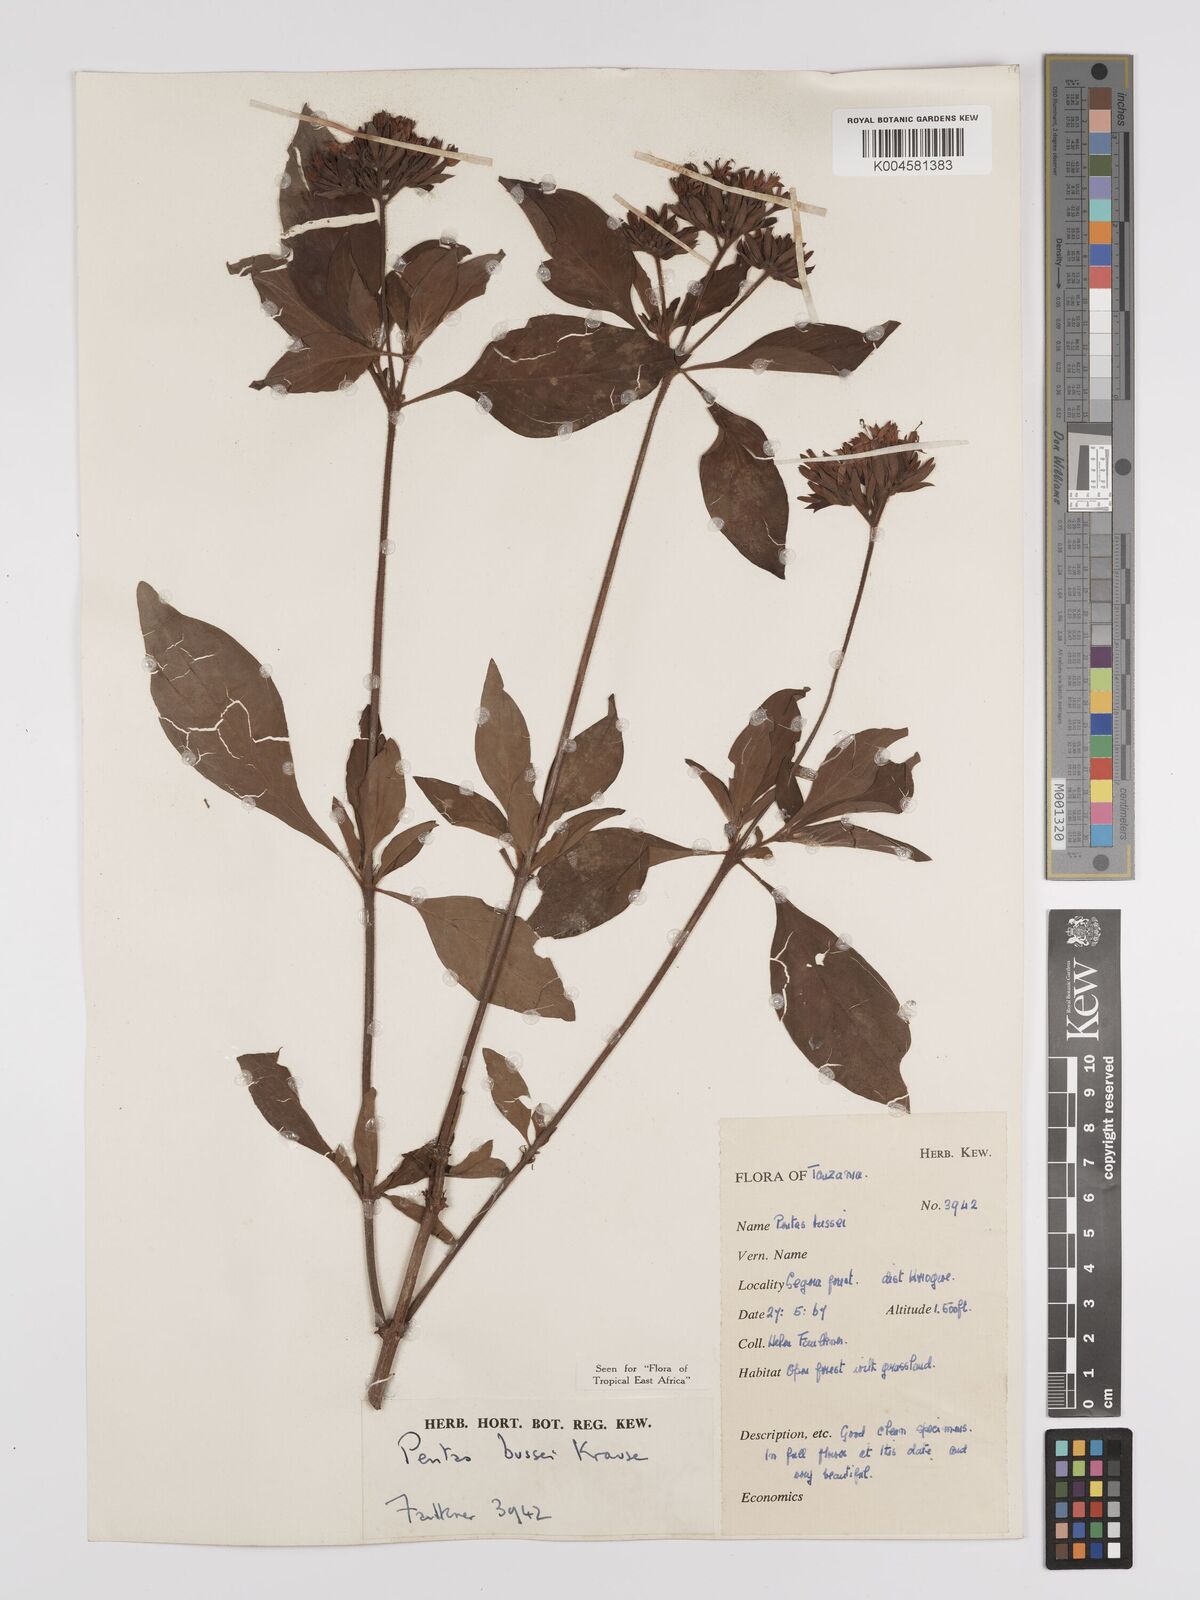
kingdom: Plantae
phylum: Tracheophyta
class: Magnoliopsida
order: Gentianales
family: Rubiaceae
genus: Rhodopentas
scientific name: Rhodopentas bussei
